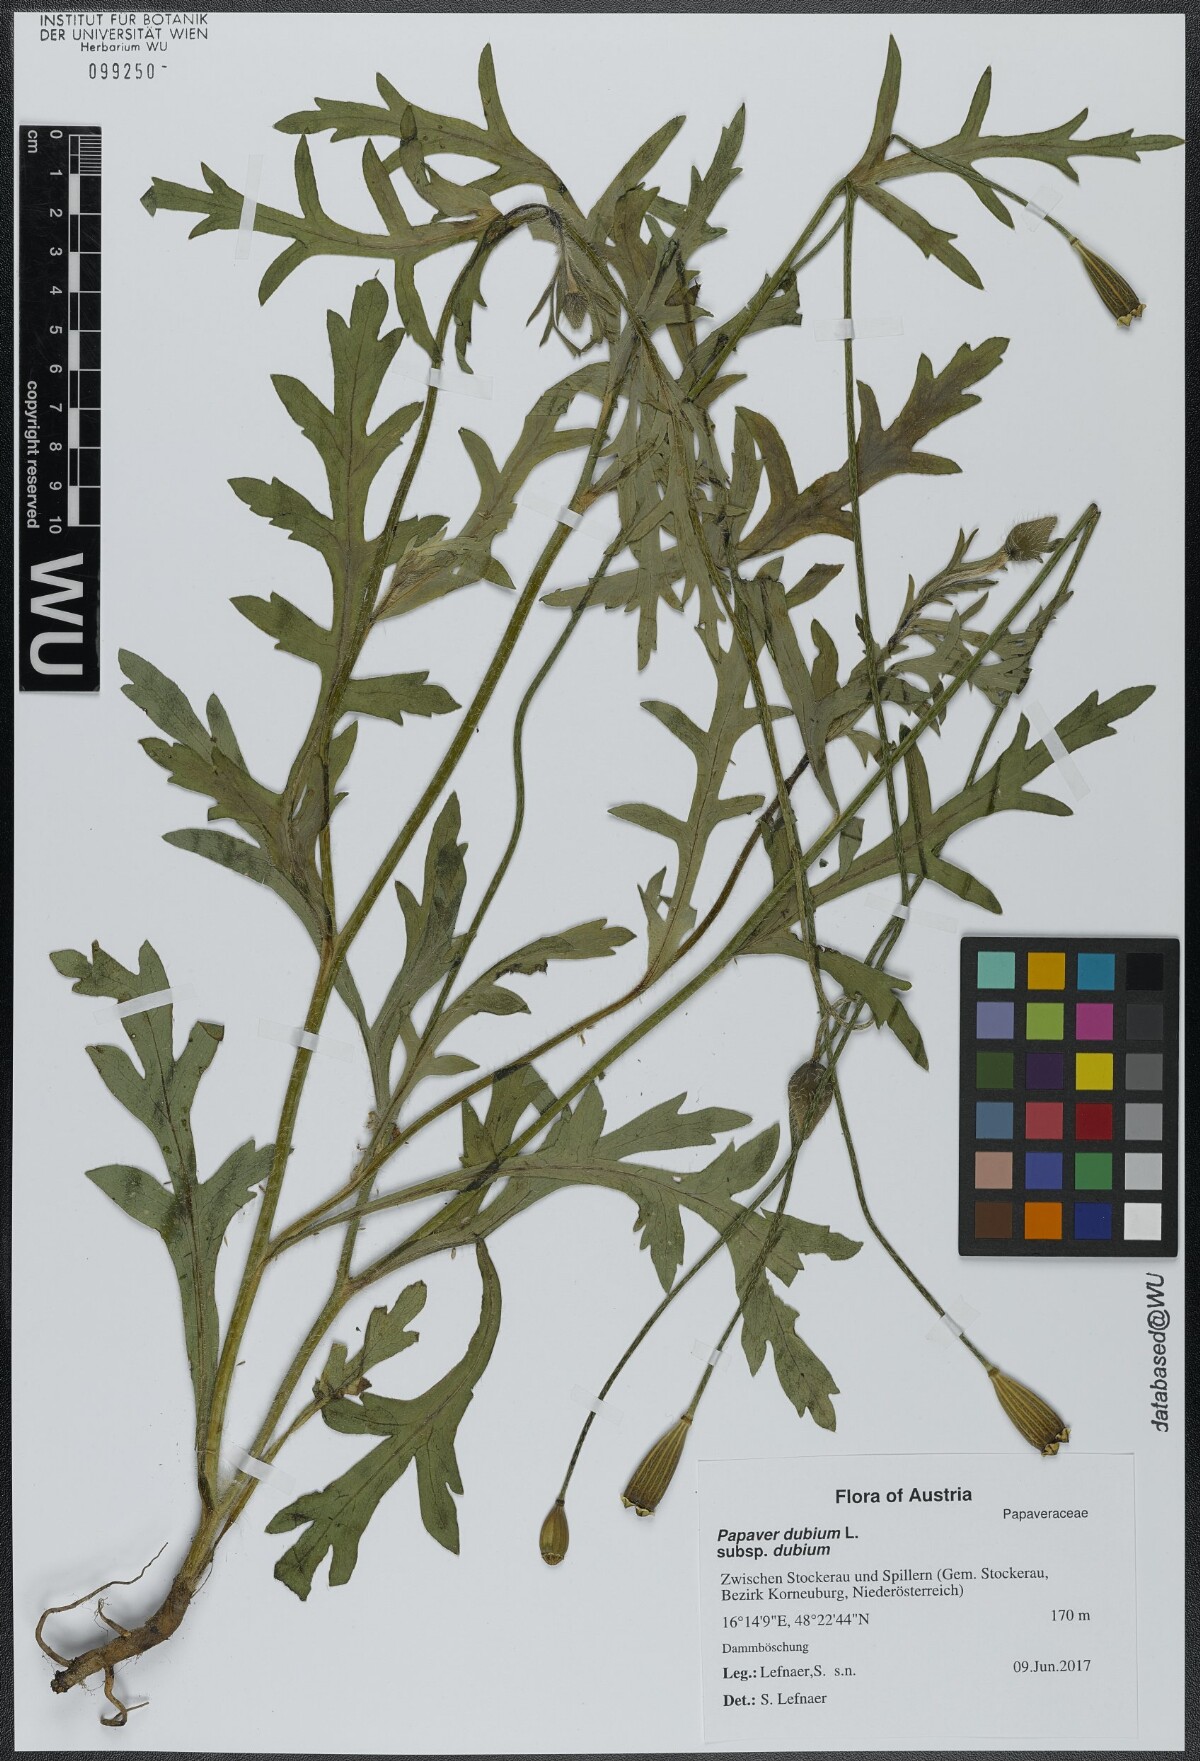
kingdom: Plantae
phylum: Tracheophyta
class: Magnoliopsida
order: Ranunculales
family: Papaveraceae
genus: Papaver
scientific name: Papaver dubium
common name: Long-headed poppy
